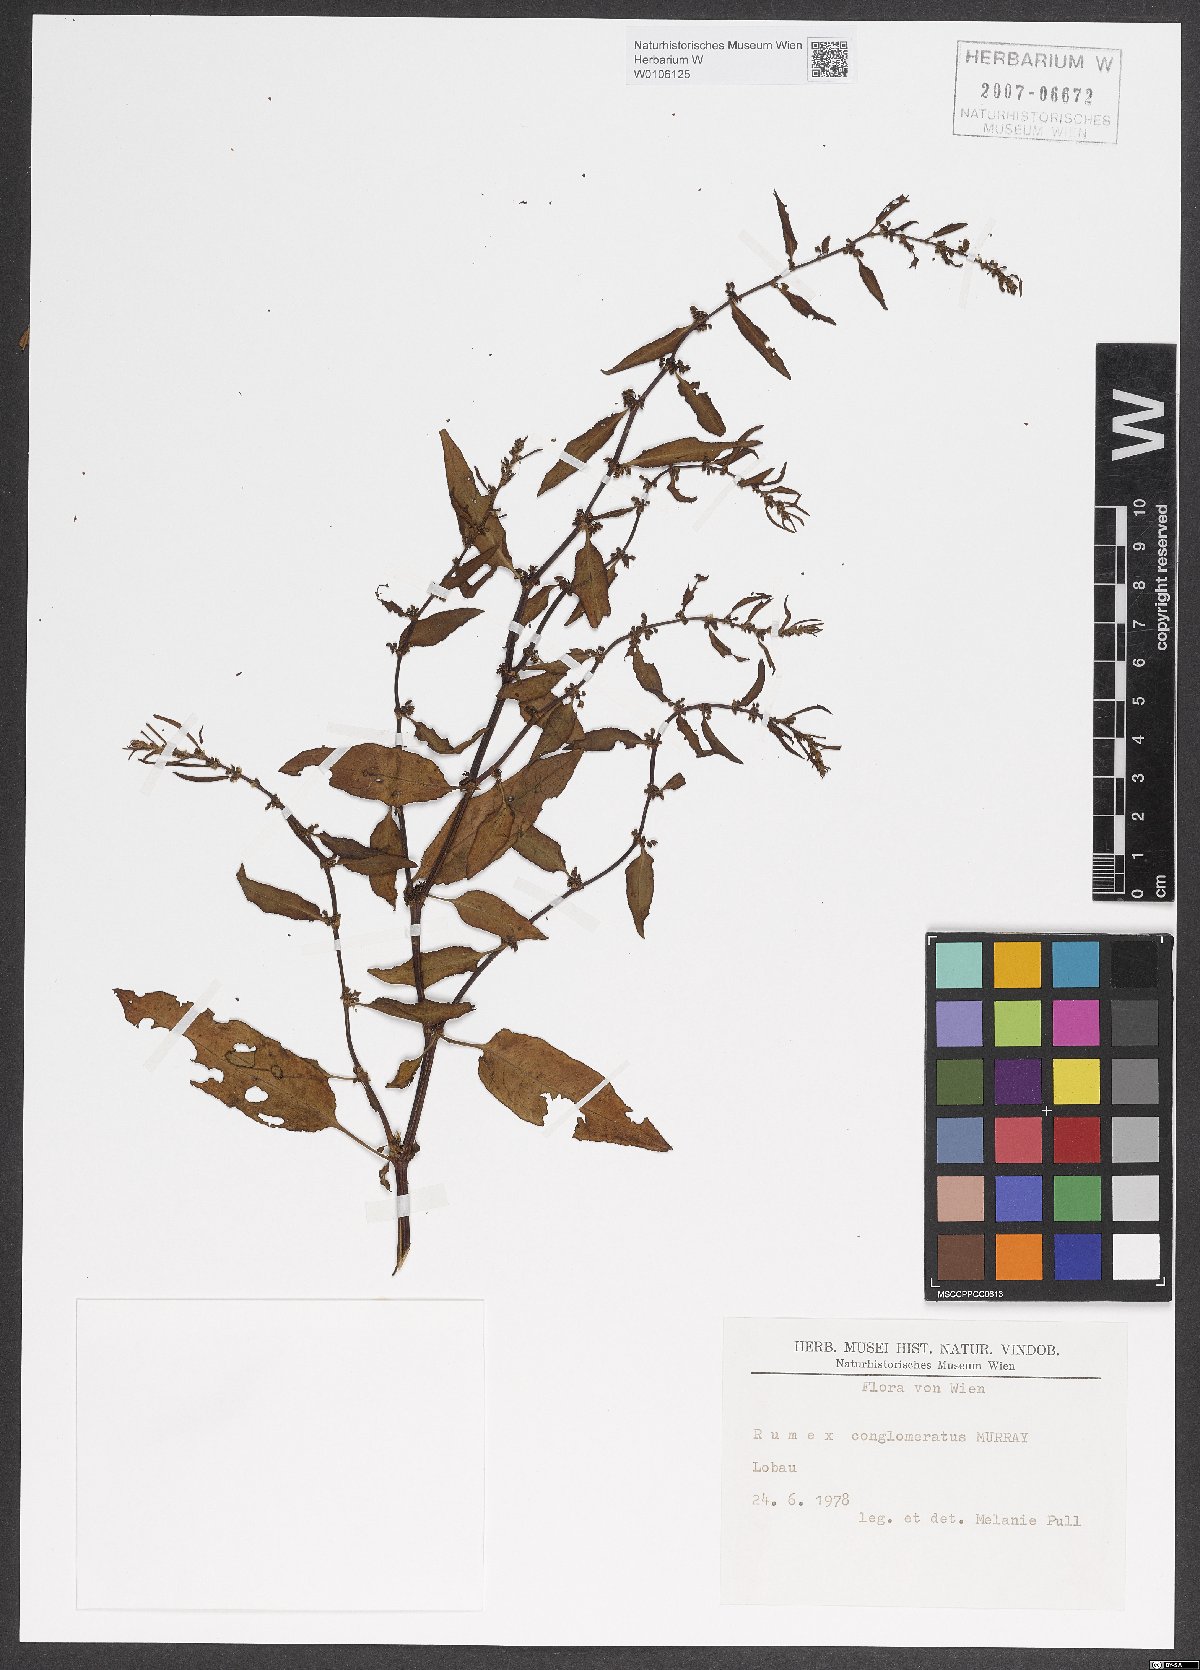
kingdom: Plantae
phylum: Tracheophyta
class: Magnoliopsida
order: Caryophyllales
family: Polygonaceae
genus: Rumex
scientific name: Rumex conglomeratus
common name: Clustered dock
